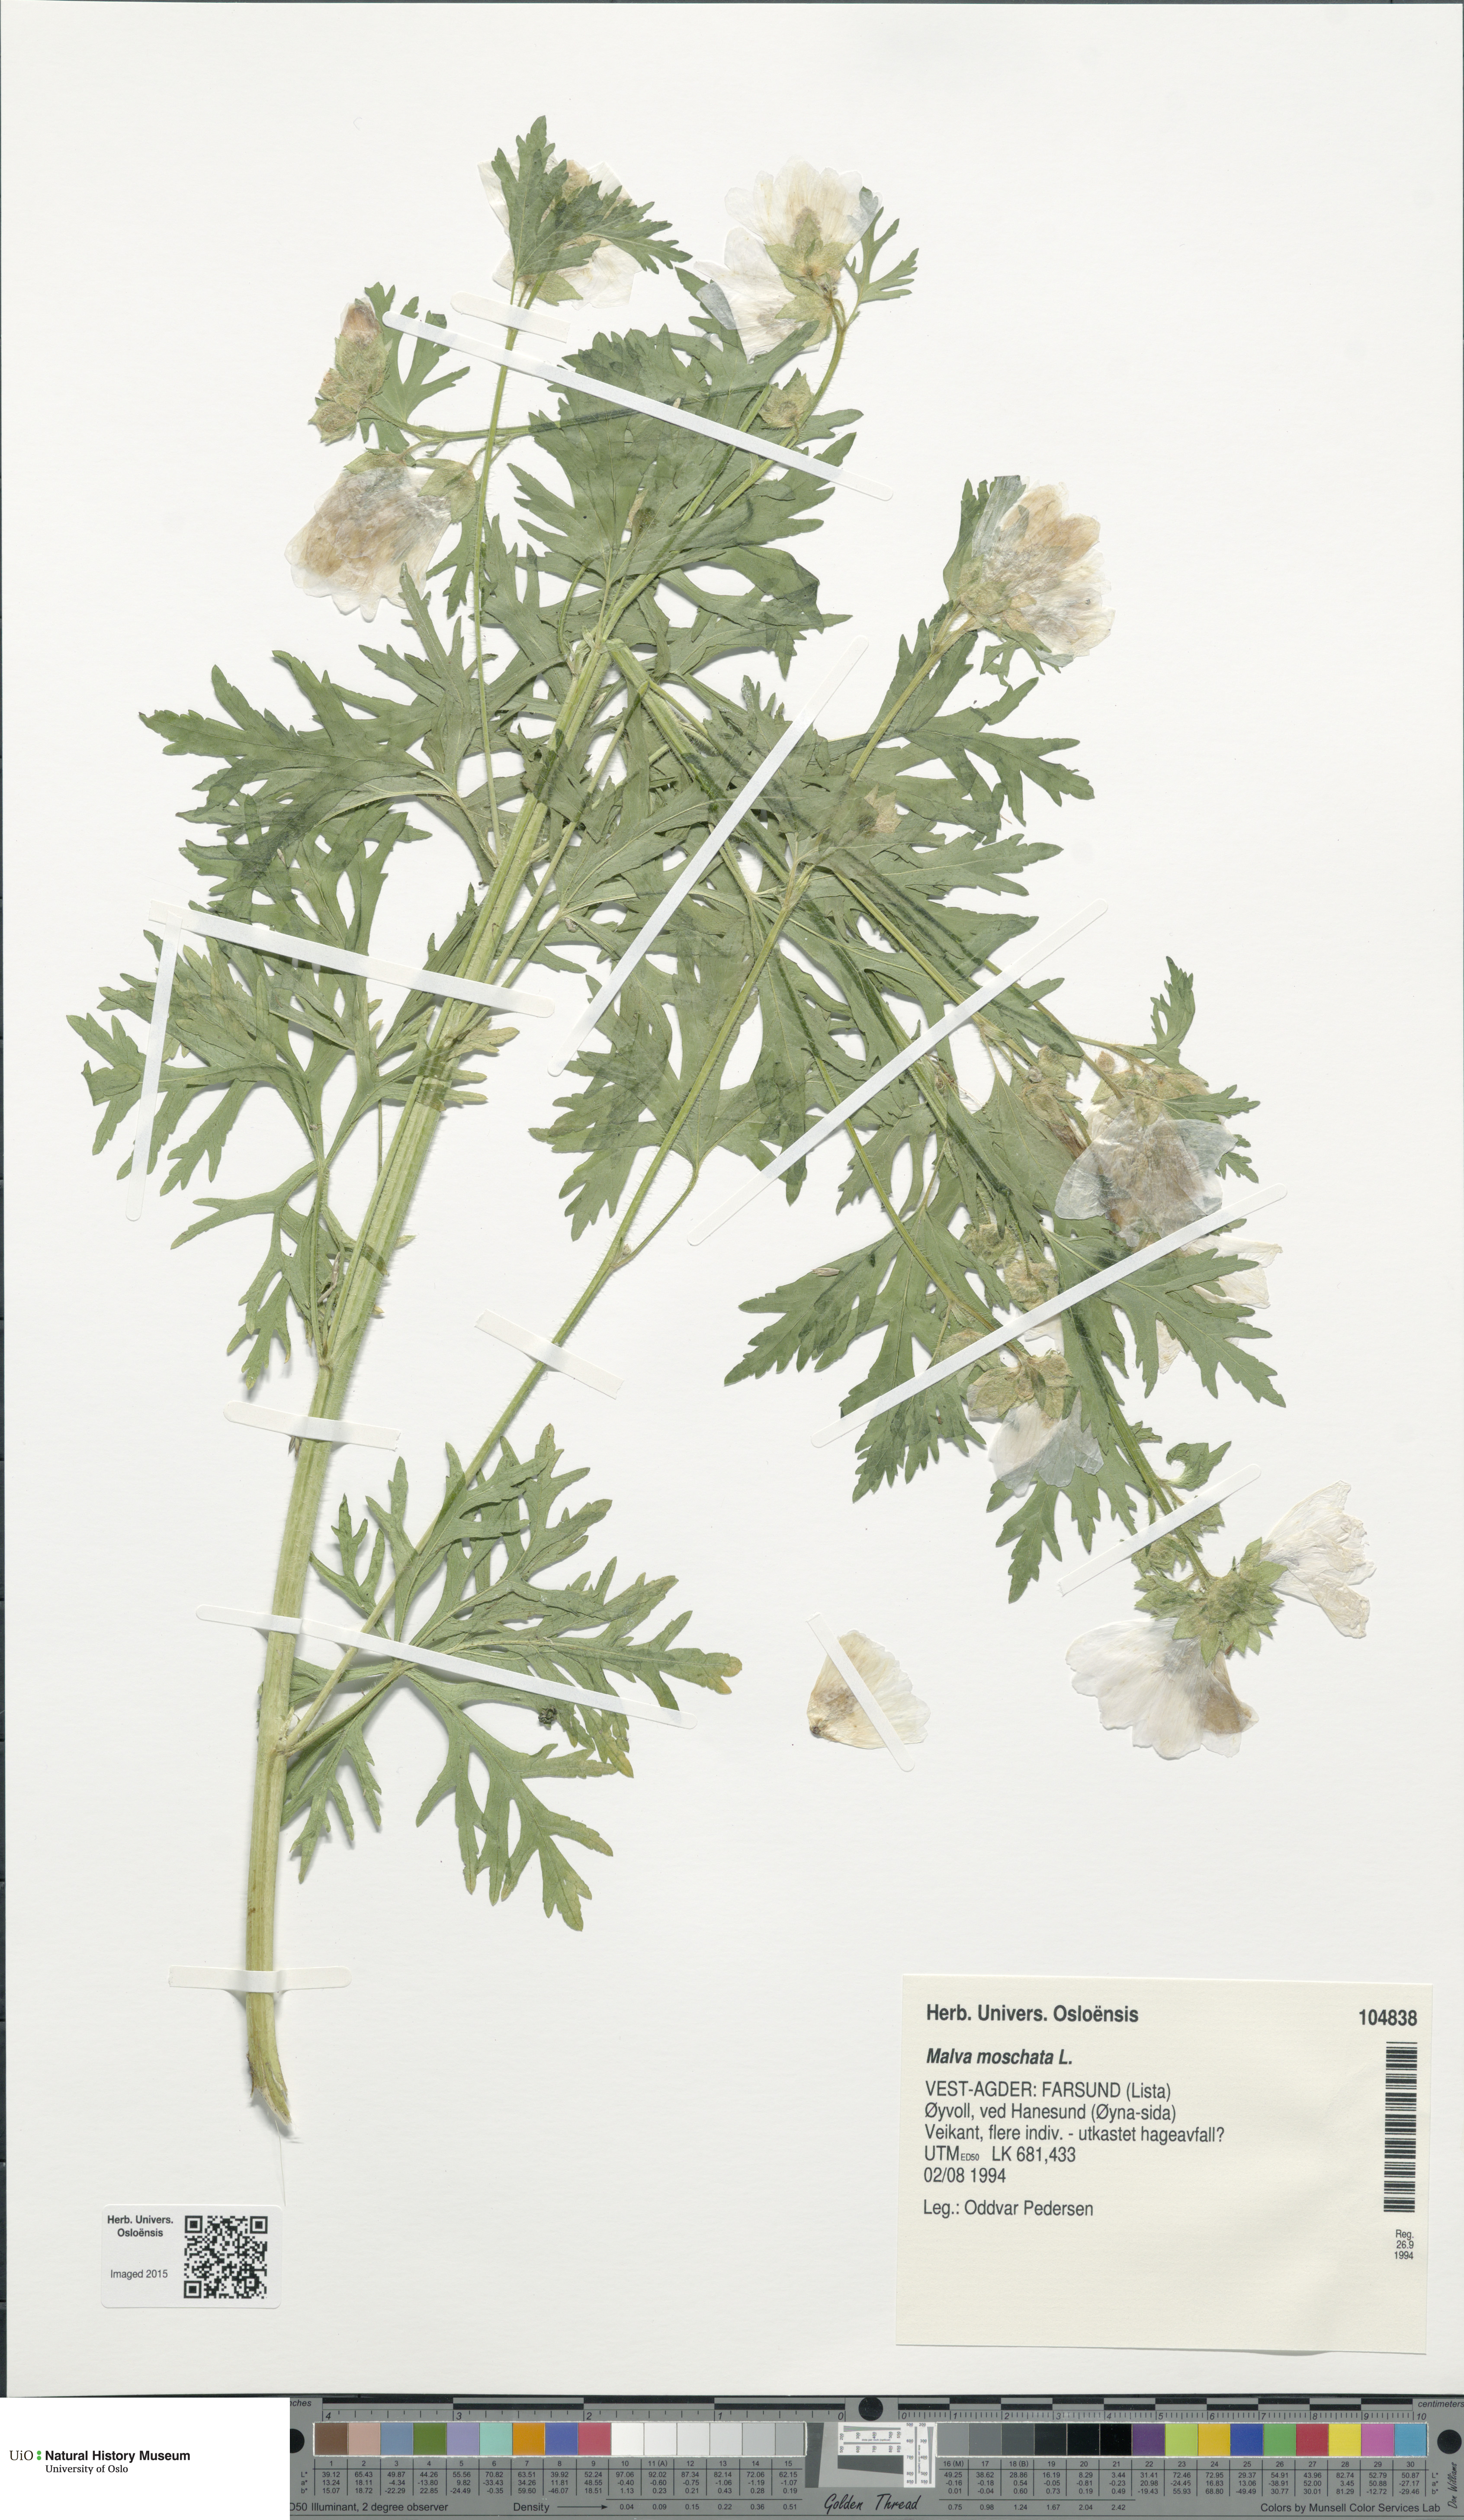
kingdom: Plantae
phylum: Tracheophyta
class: Magnoliopsida
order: Malvales
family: Malvaceae
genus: Malva
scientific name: Malva moschata
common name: Musk mallow
